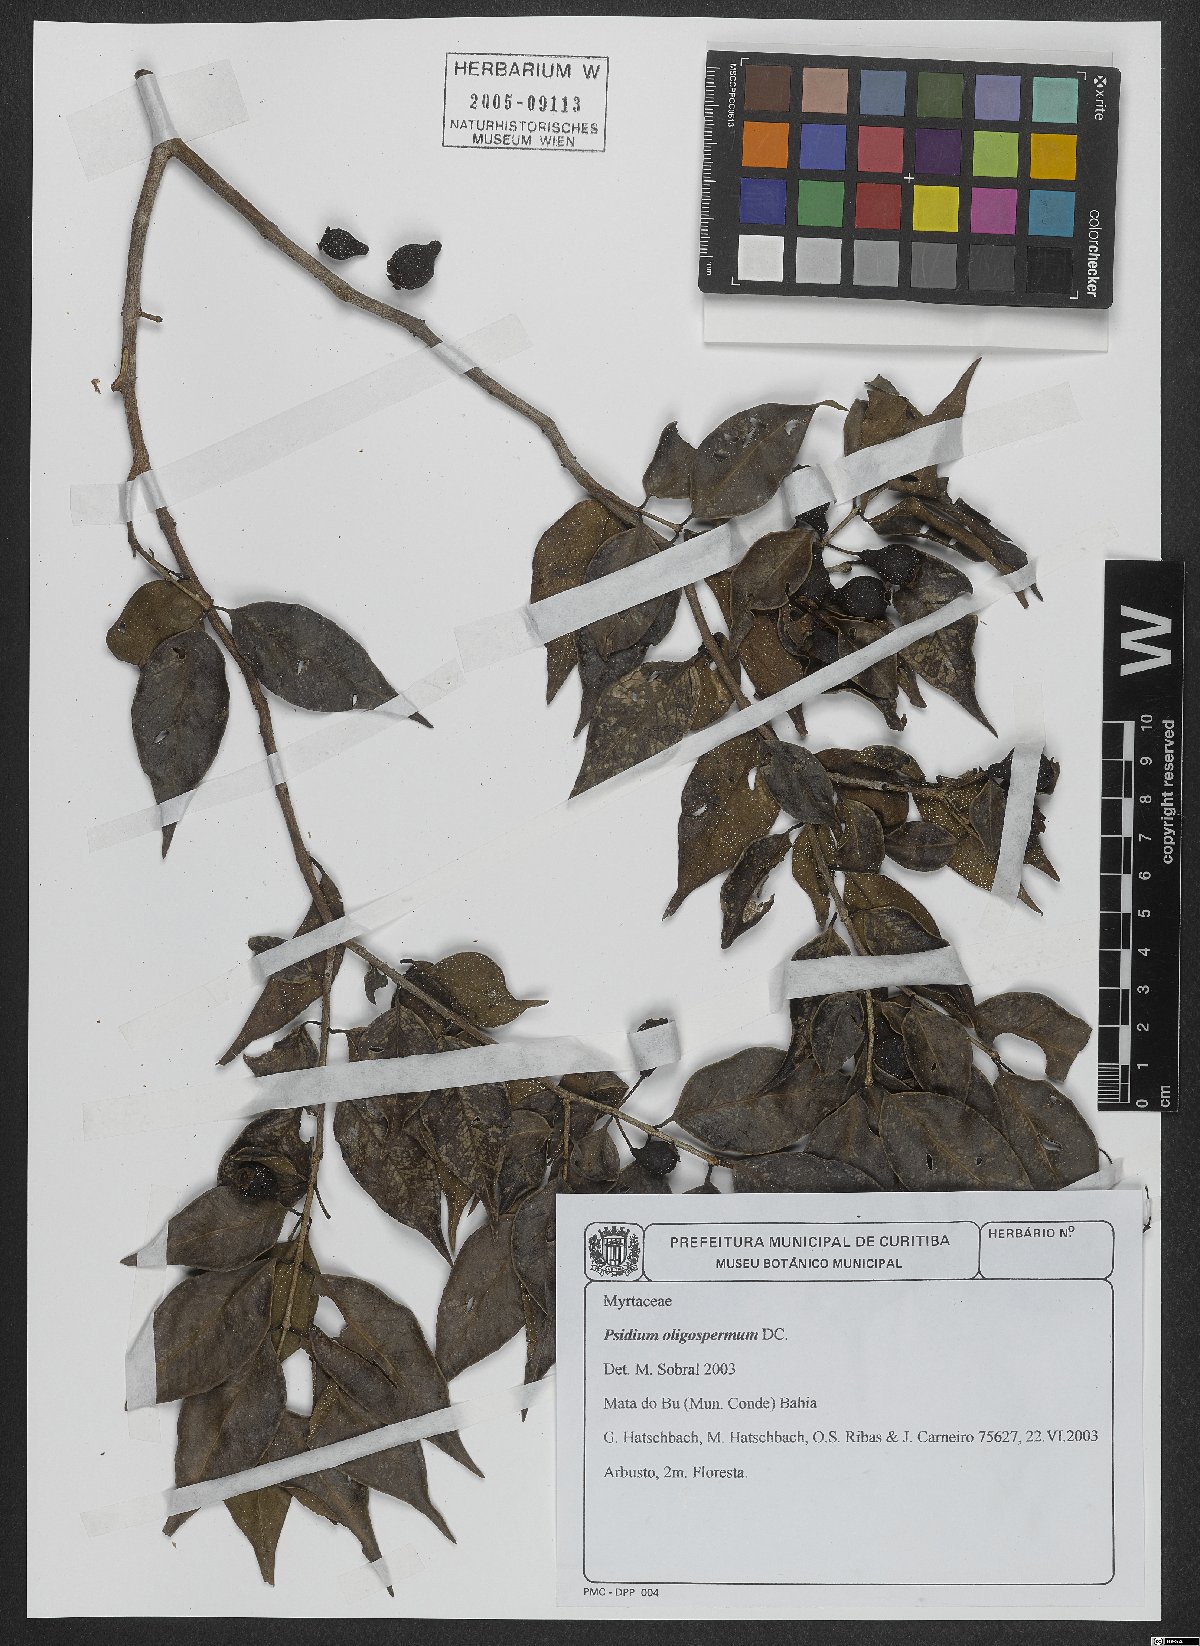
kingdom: Plantae
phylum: Tracheophyta
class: Magnoliopsida
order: Myrtales
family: Myrtaceae
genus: Psidium
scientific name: Psidium oligospermum
